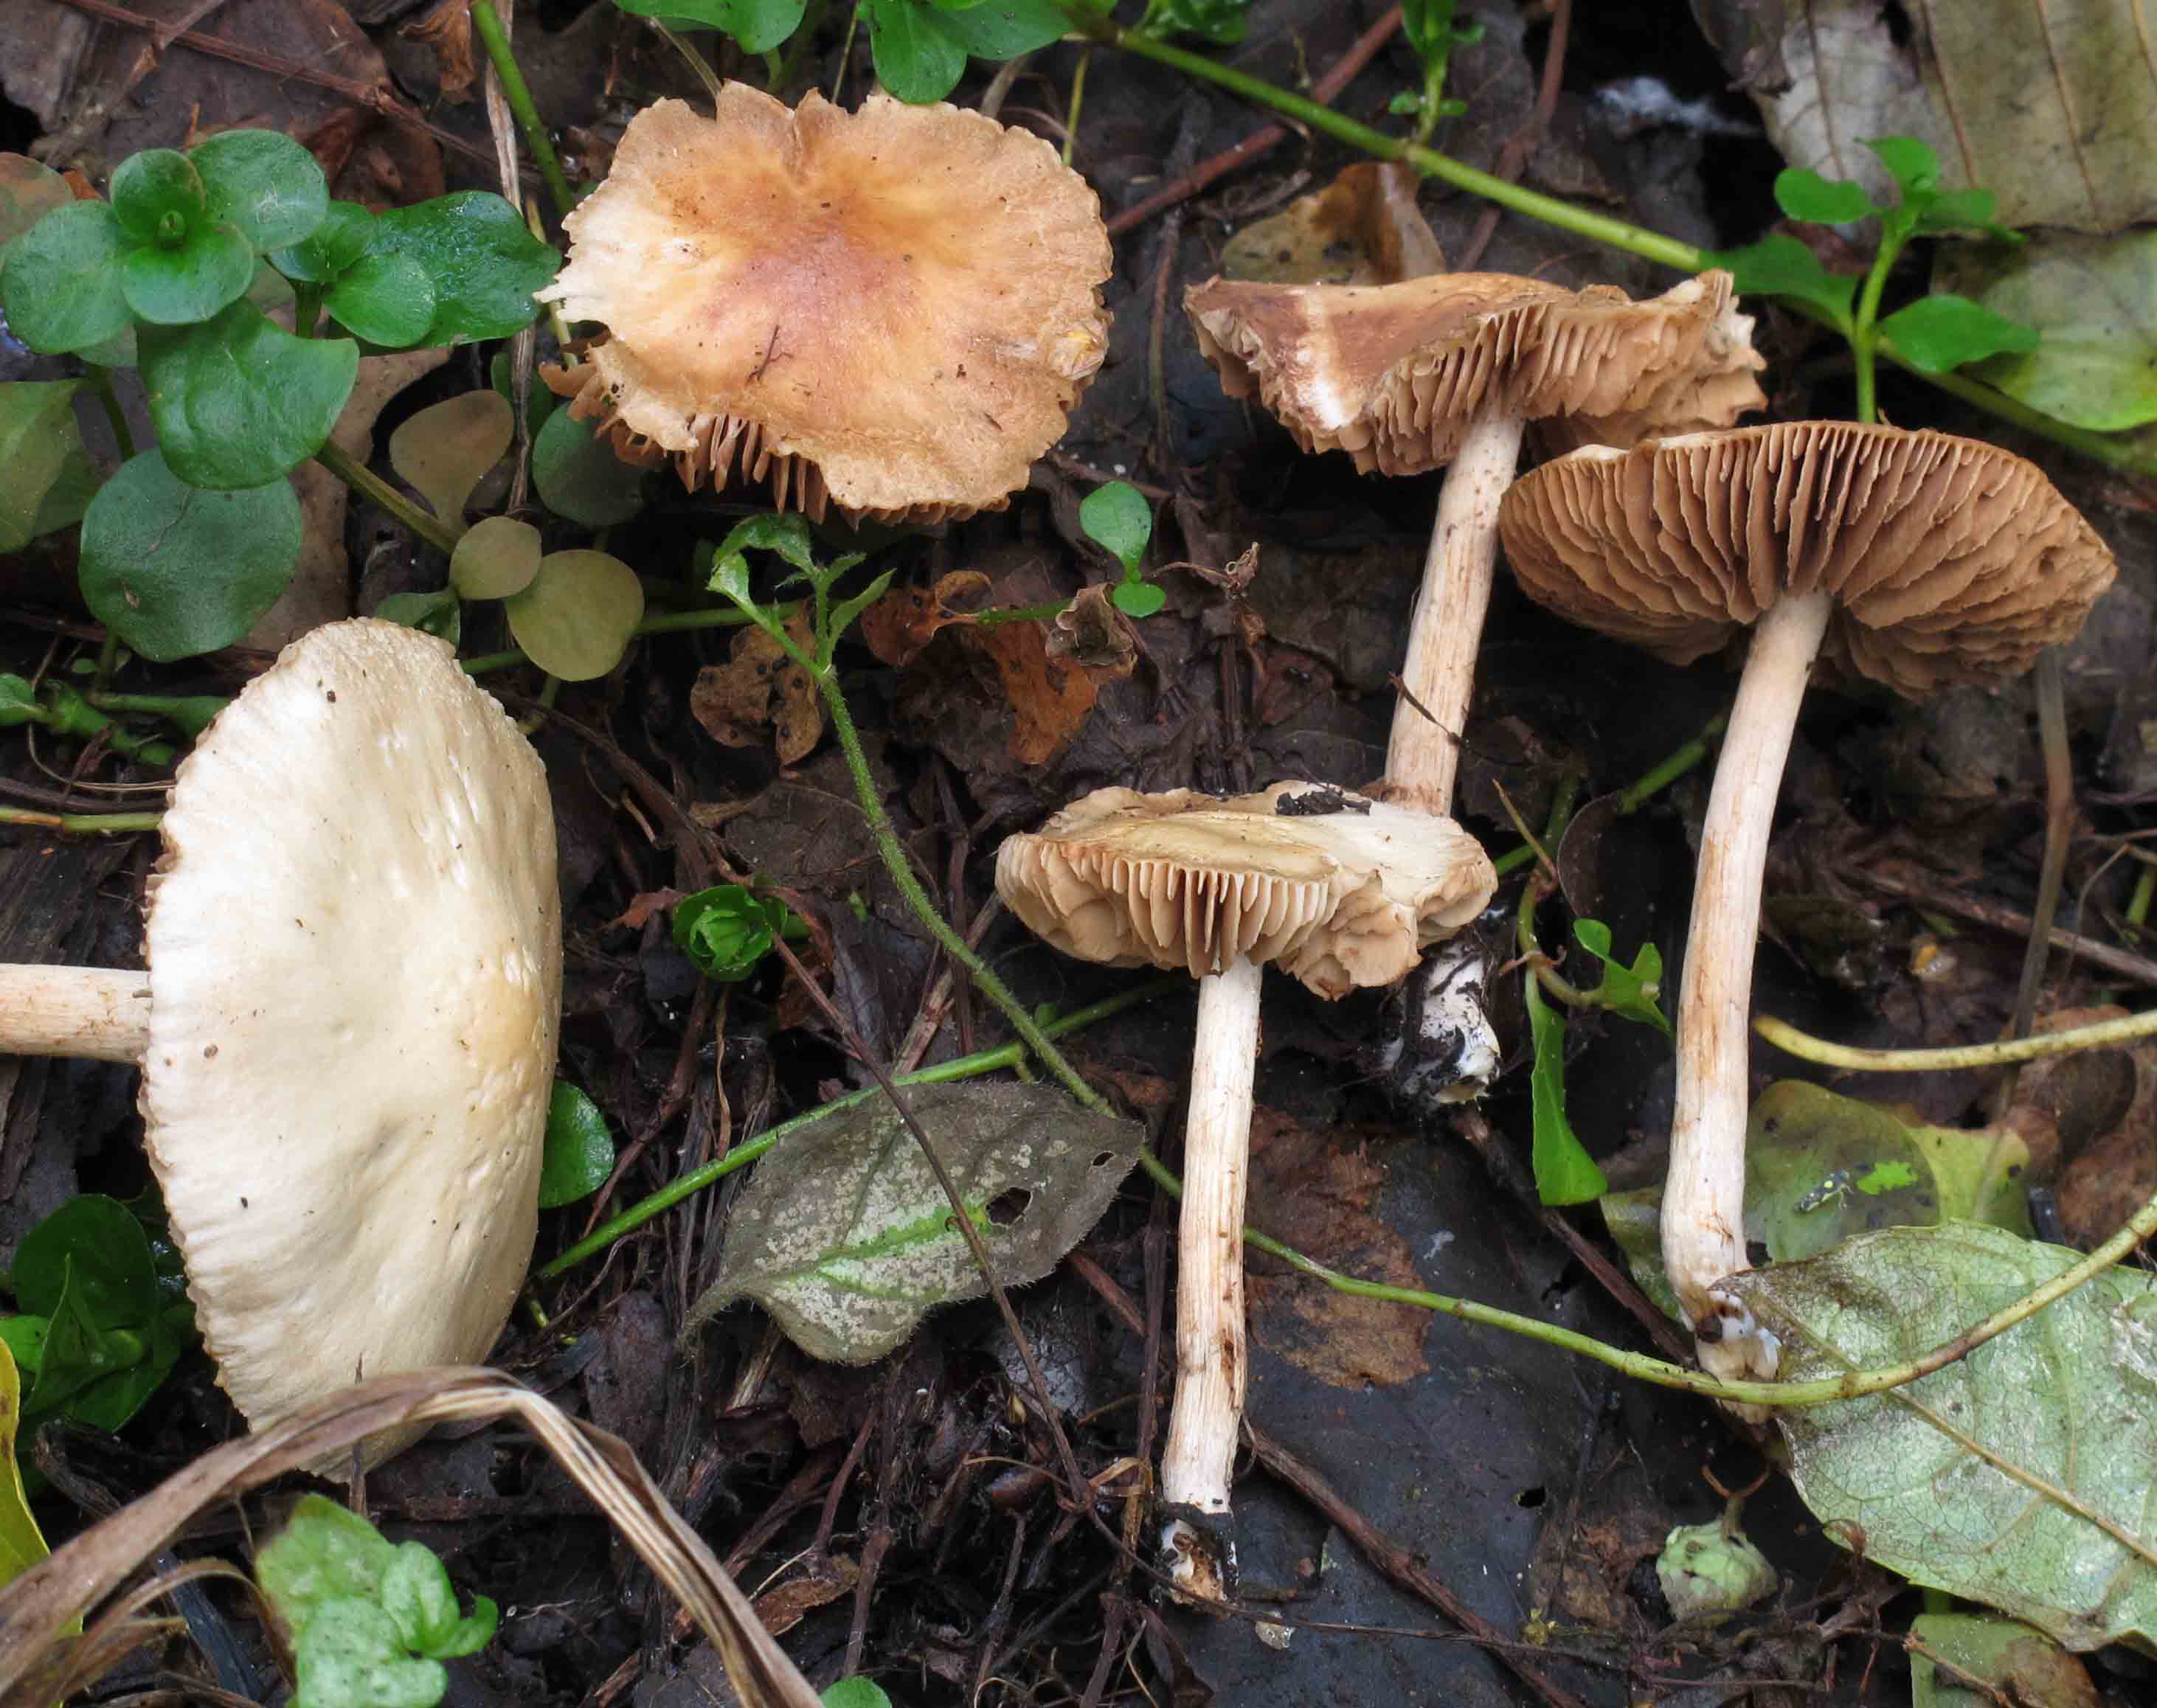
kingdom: Fungi
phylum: Basidiomycota
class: Agaricomycetes
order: Agaricales
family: Hymenogastraceae
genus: Hebeloma
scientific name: Hebeloma sacchariolens
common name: sødtduftende tåreblad
